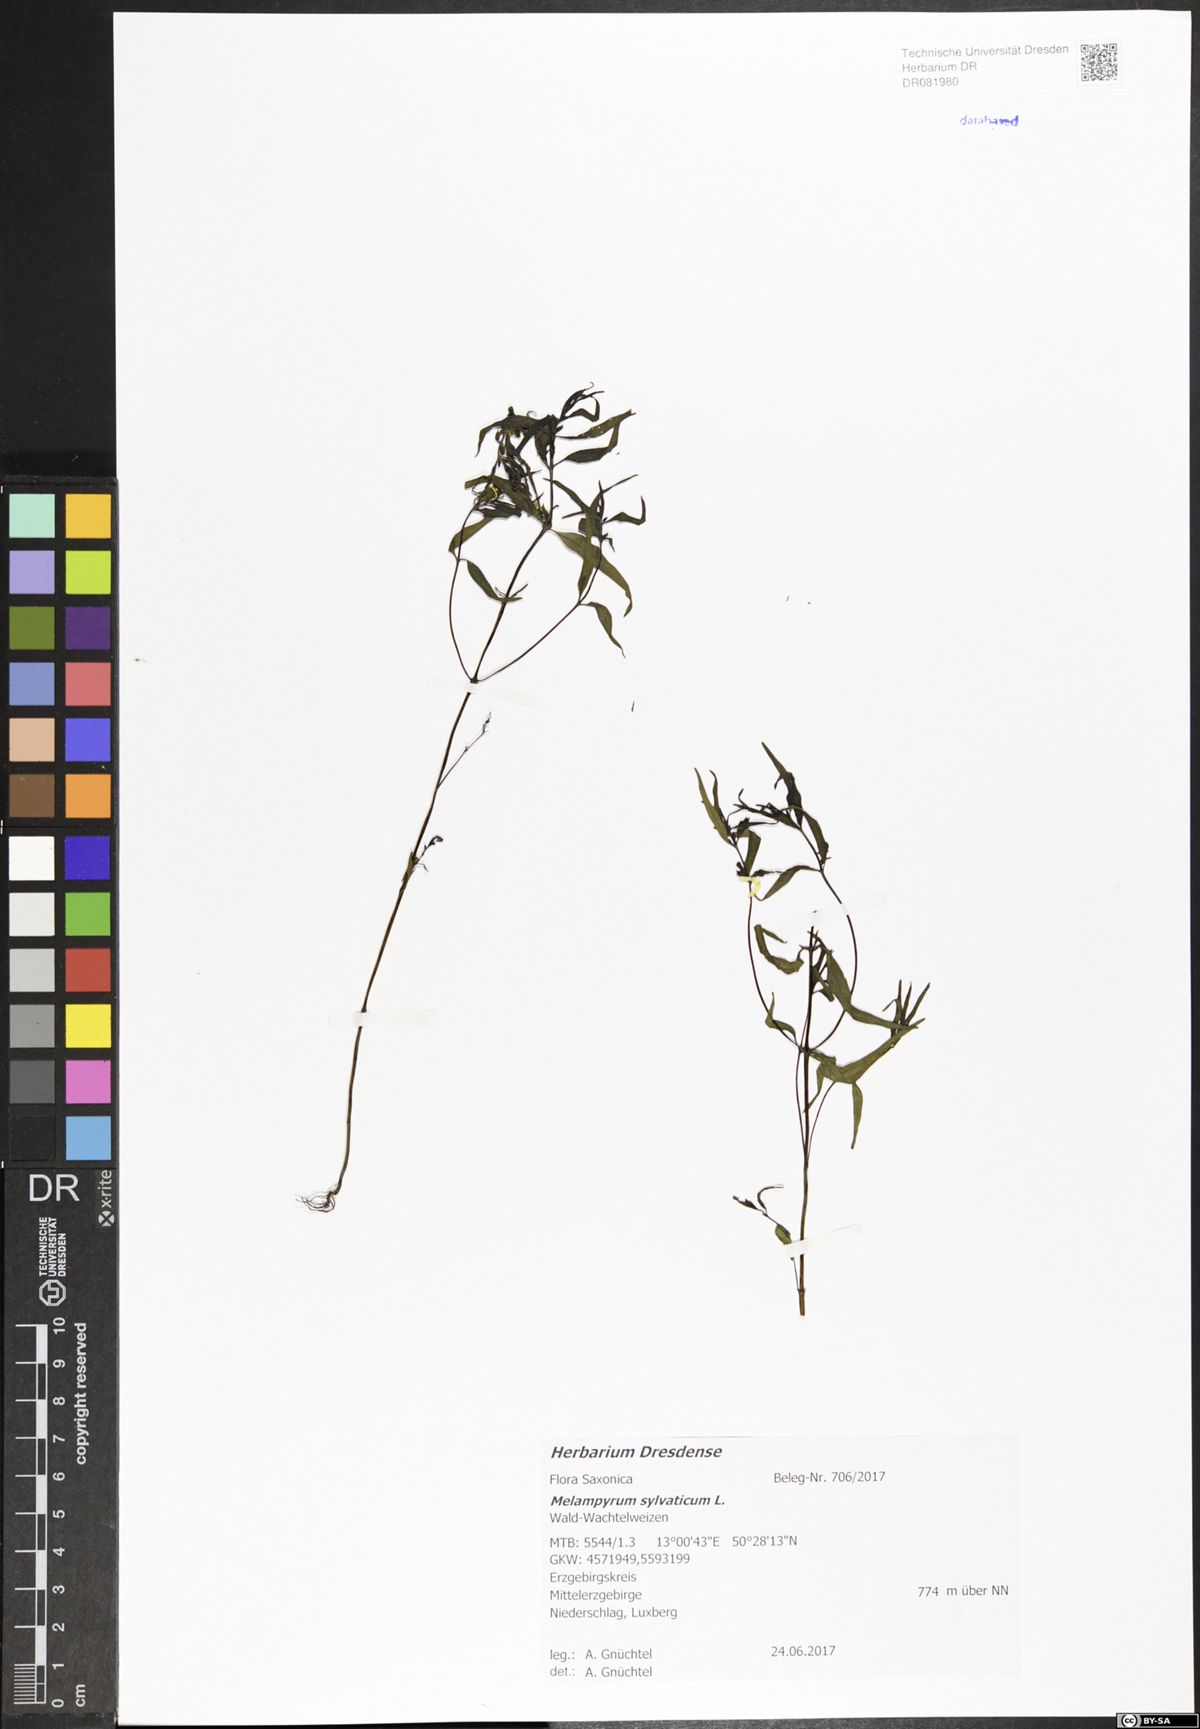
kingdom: Plantae
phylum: Tracheophyta
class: Magnoliopsida
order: Lamiales
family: Orobanchaceae
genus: Melampyrum
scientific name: Melampyrum sylvaticum
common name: Small cow-wheat
